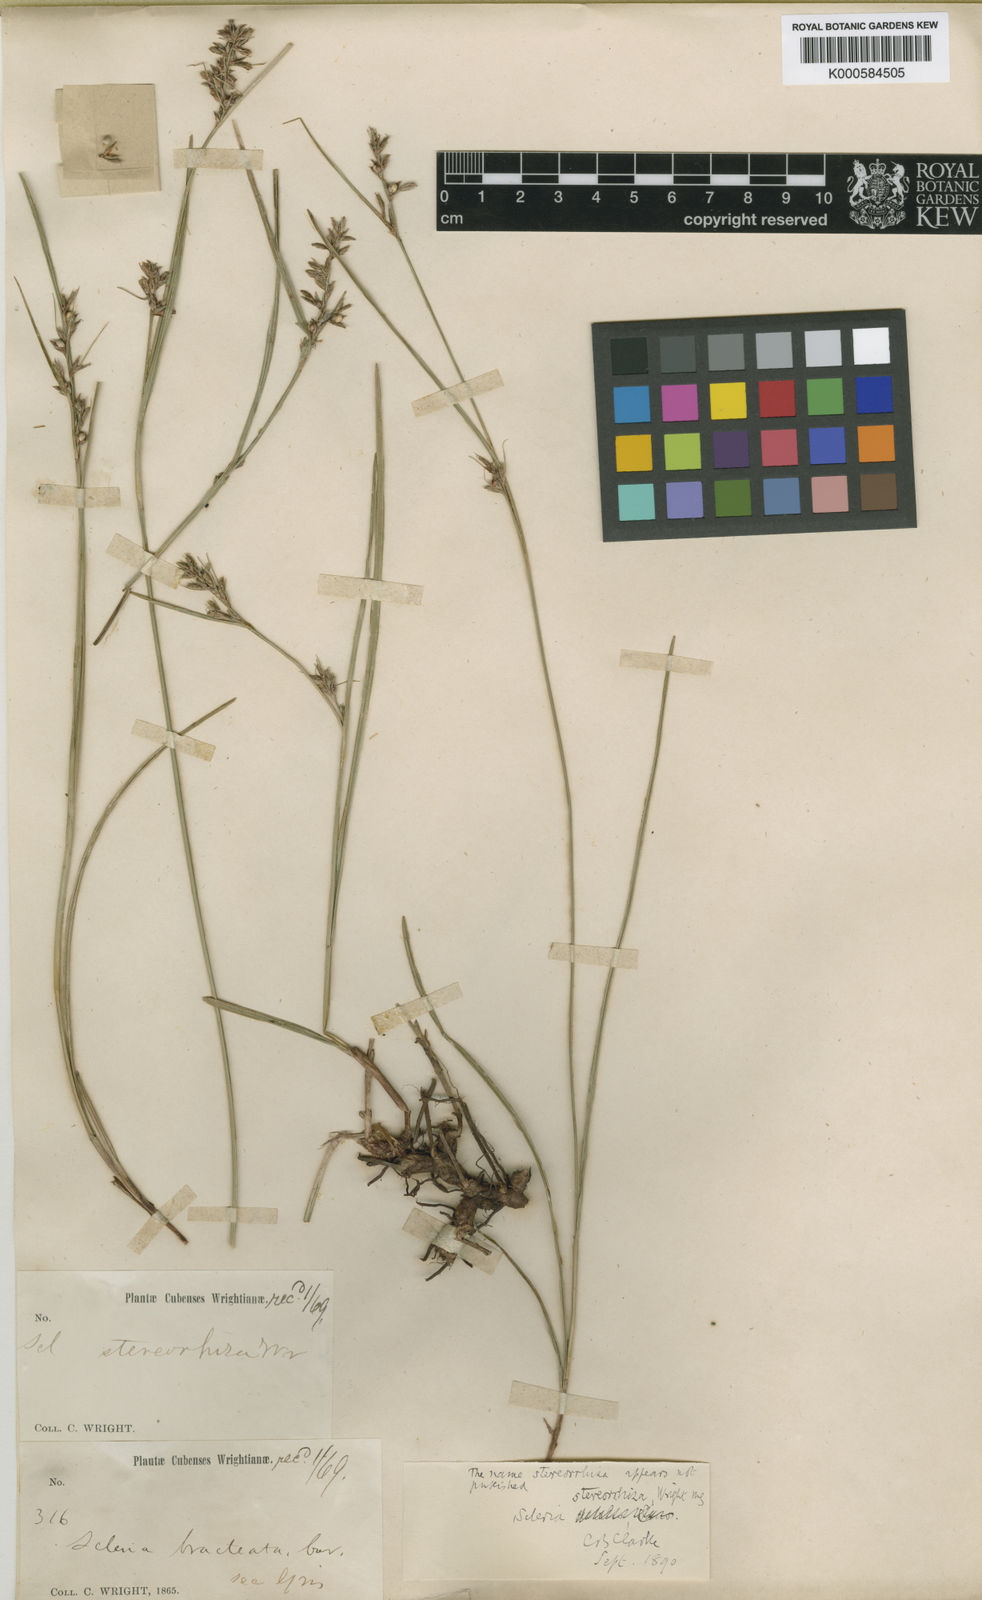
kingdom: Plantae
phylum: Tracheophyta
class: Liliopsida
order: Poales
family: Cyperaceae
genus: Scleria
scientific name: Scleria
